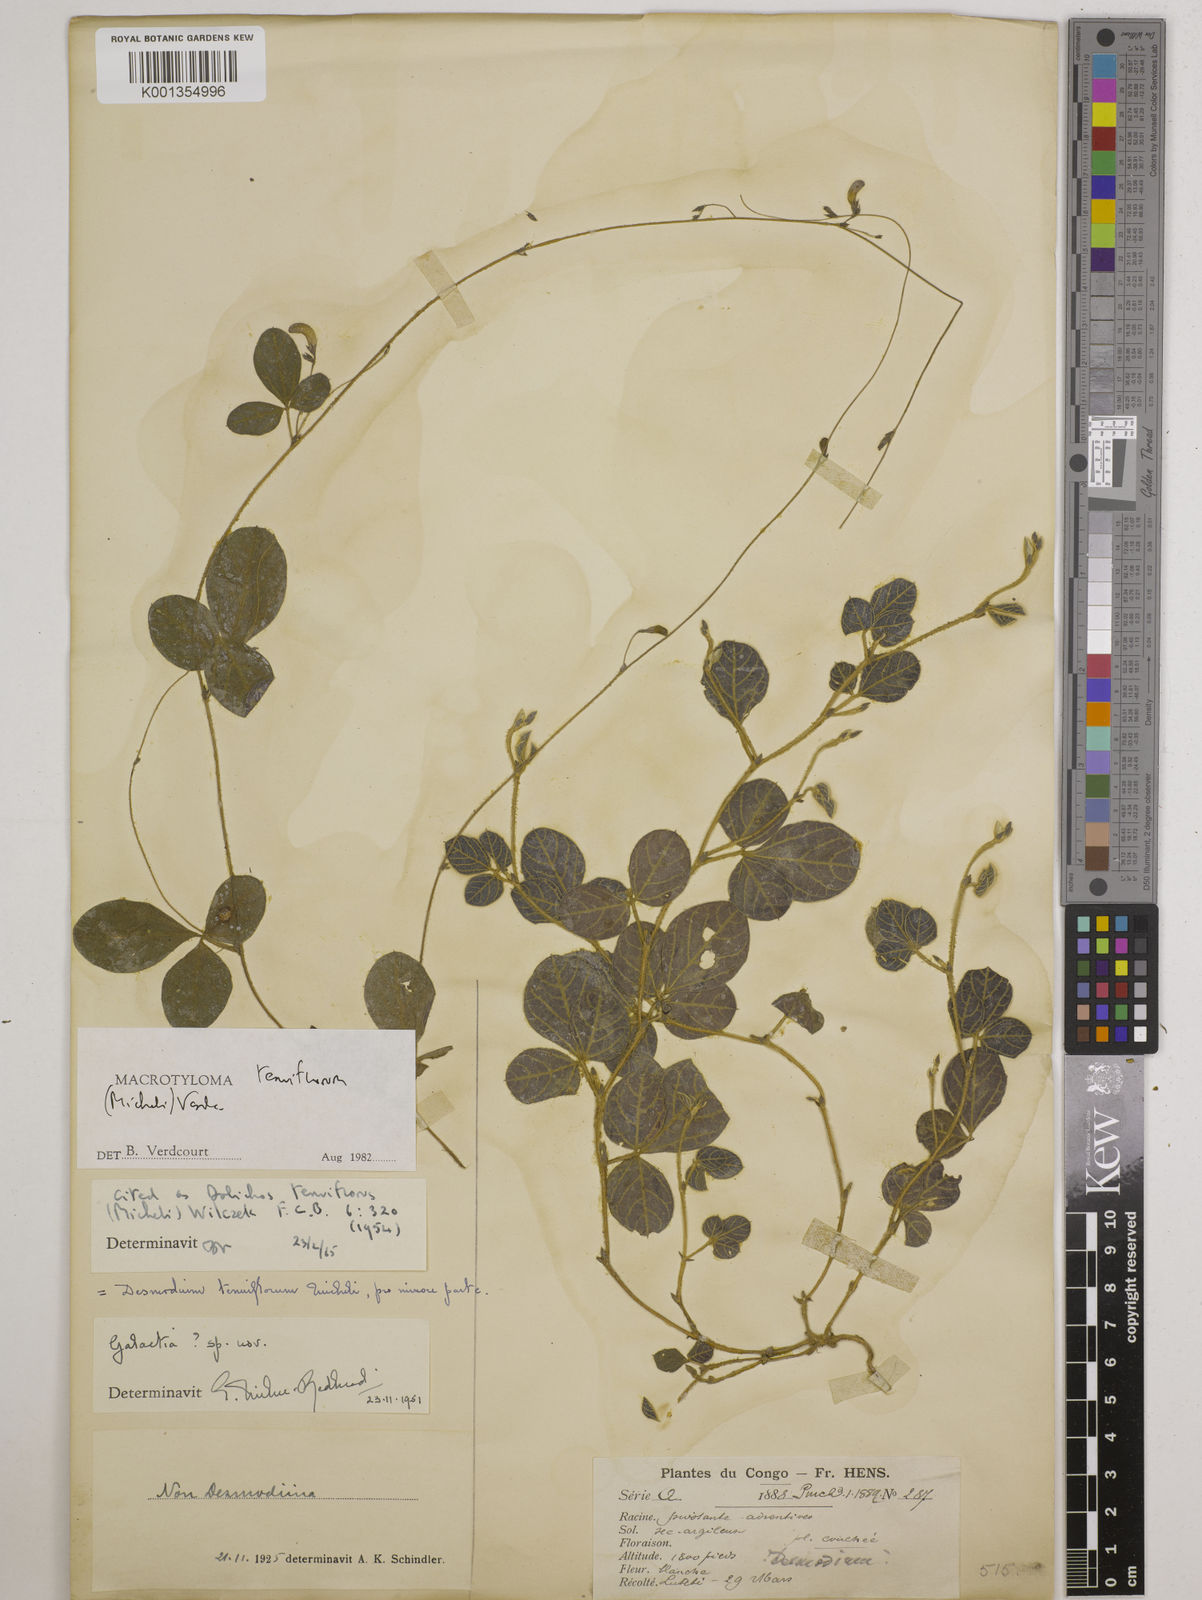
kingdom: Plantae
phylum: Tracheophyta
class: Magnoliopsida
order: Fabales
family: Fabaceae
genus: Macrotyloma
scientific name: Macrotyloma tenuiflorum
